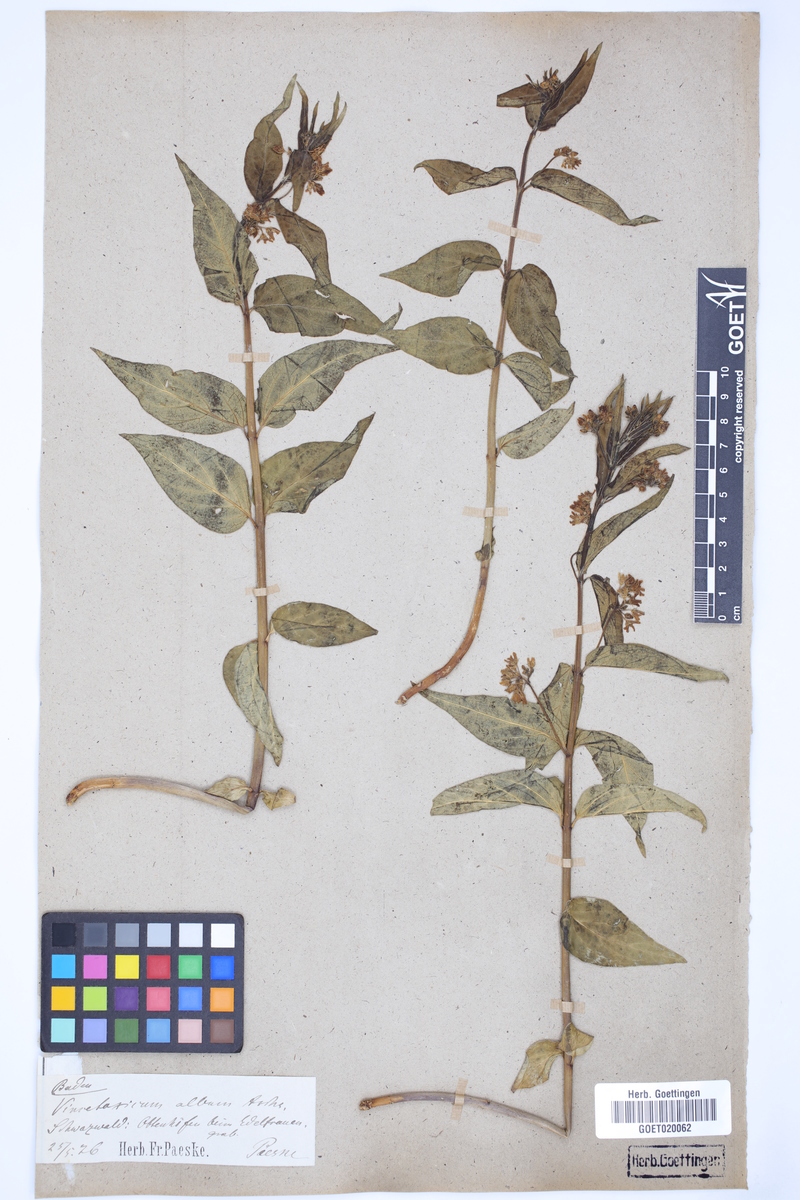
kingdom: Plantae
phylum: Tracheophyta
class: Magnoliopsida
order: Gentianales
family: Apocynaceae
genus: Vincetoxicum
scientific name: Vincetoxicum hirundinaria
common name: White swallowwort
